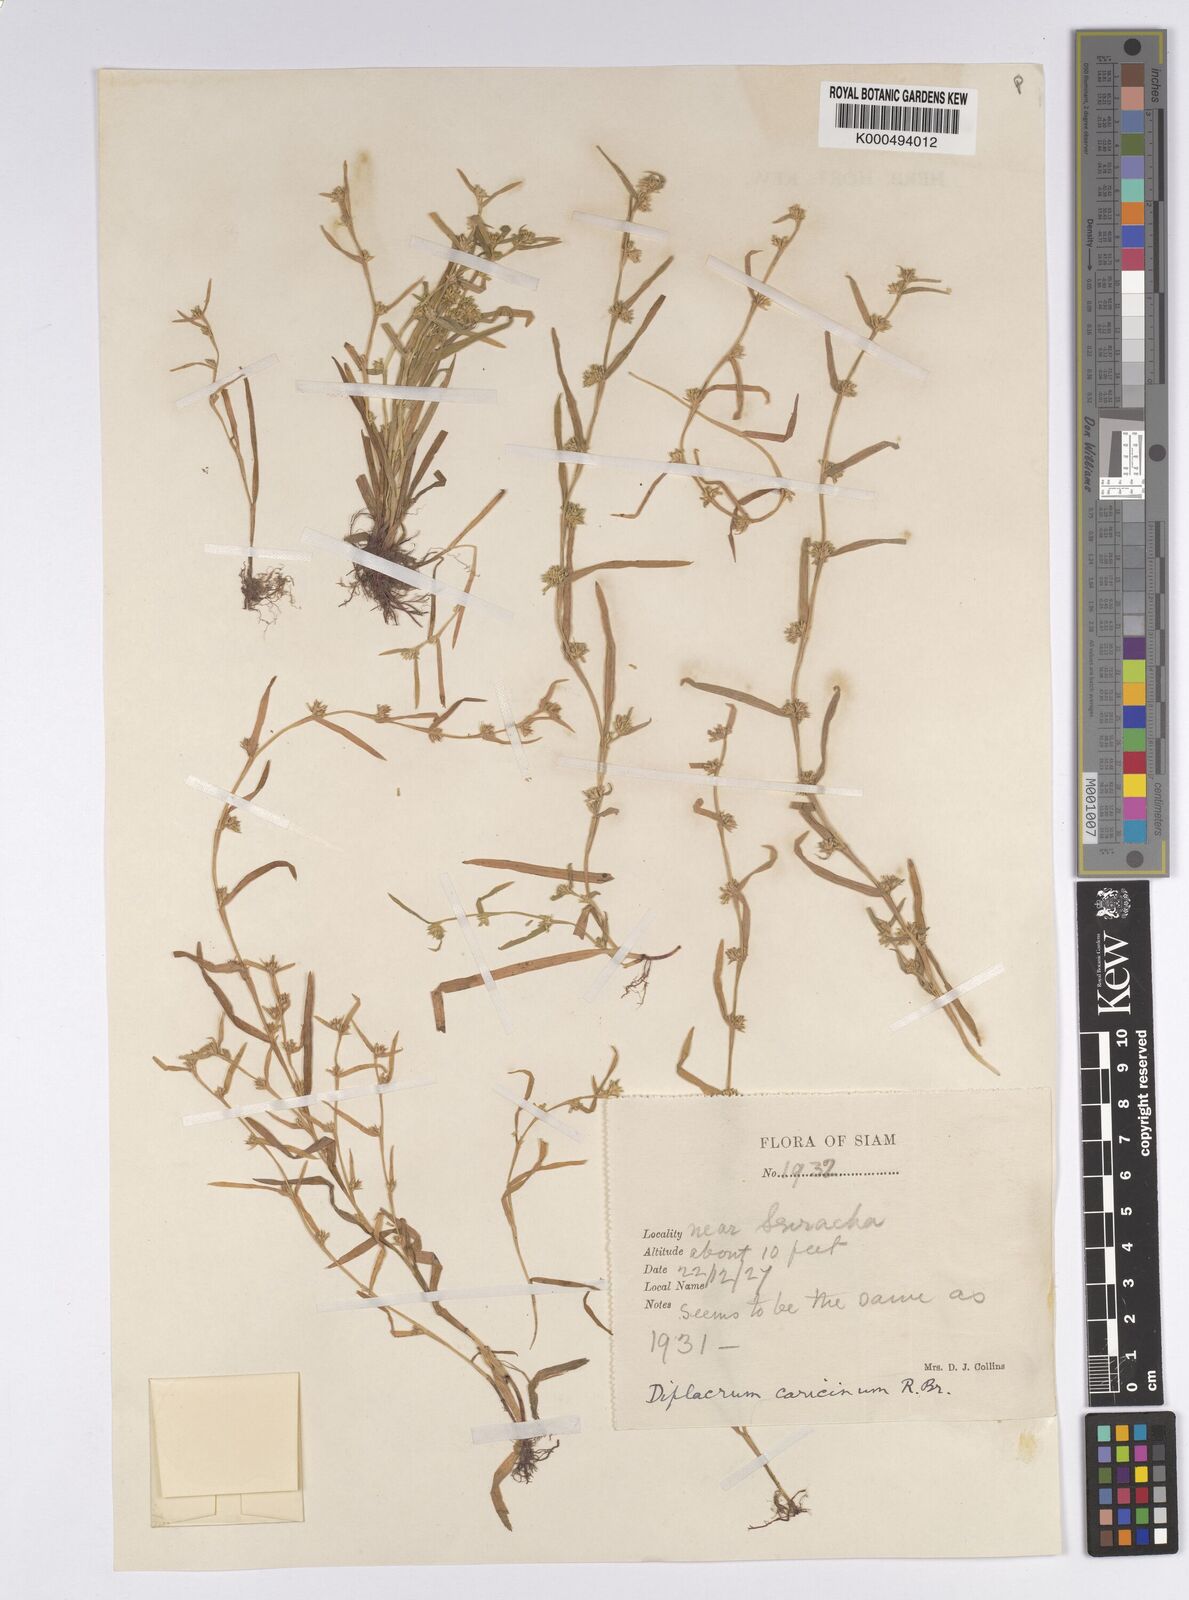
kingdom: Plantae
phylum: Tracheophyta
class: Liliopsida
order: Poales
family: Cyperaceae
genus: Diplacrum
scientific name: Diplacrum caricinum
